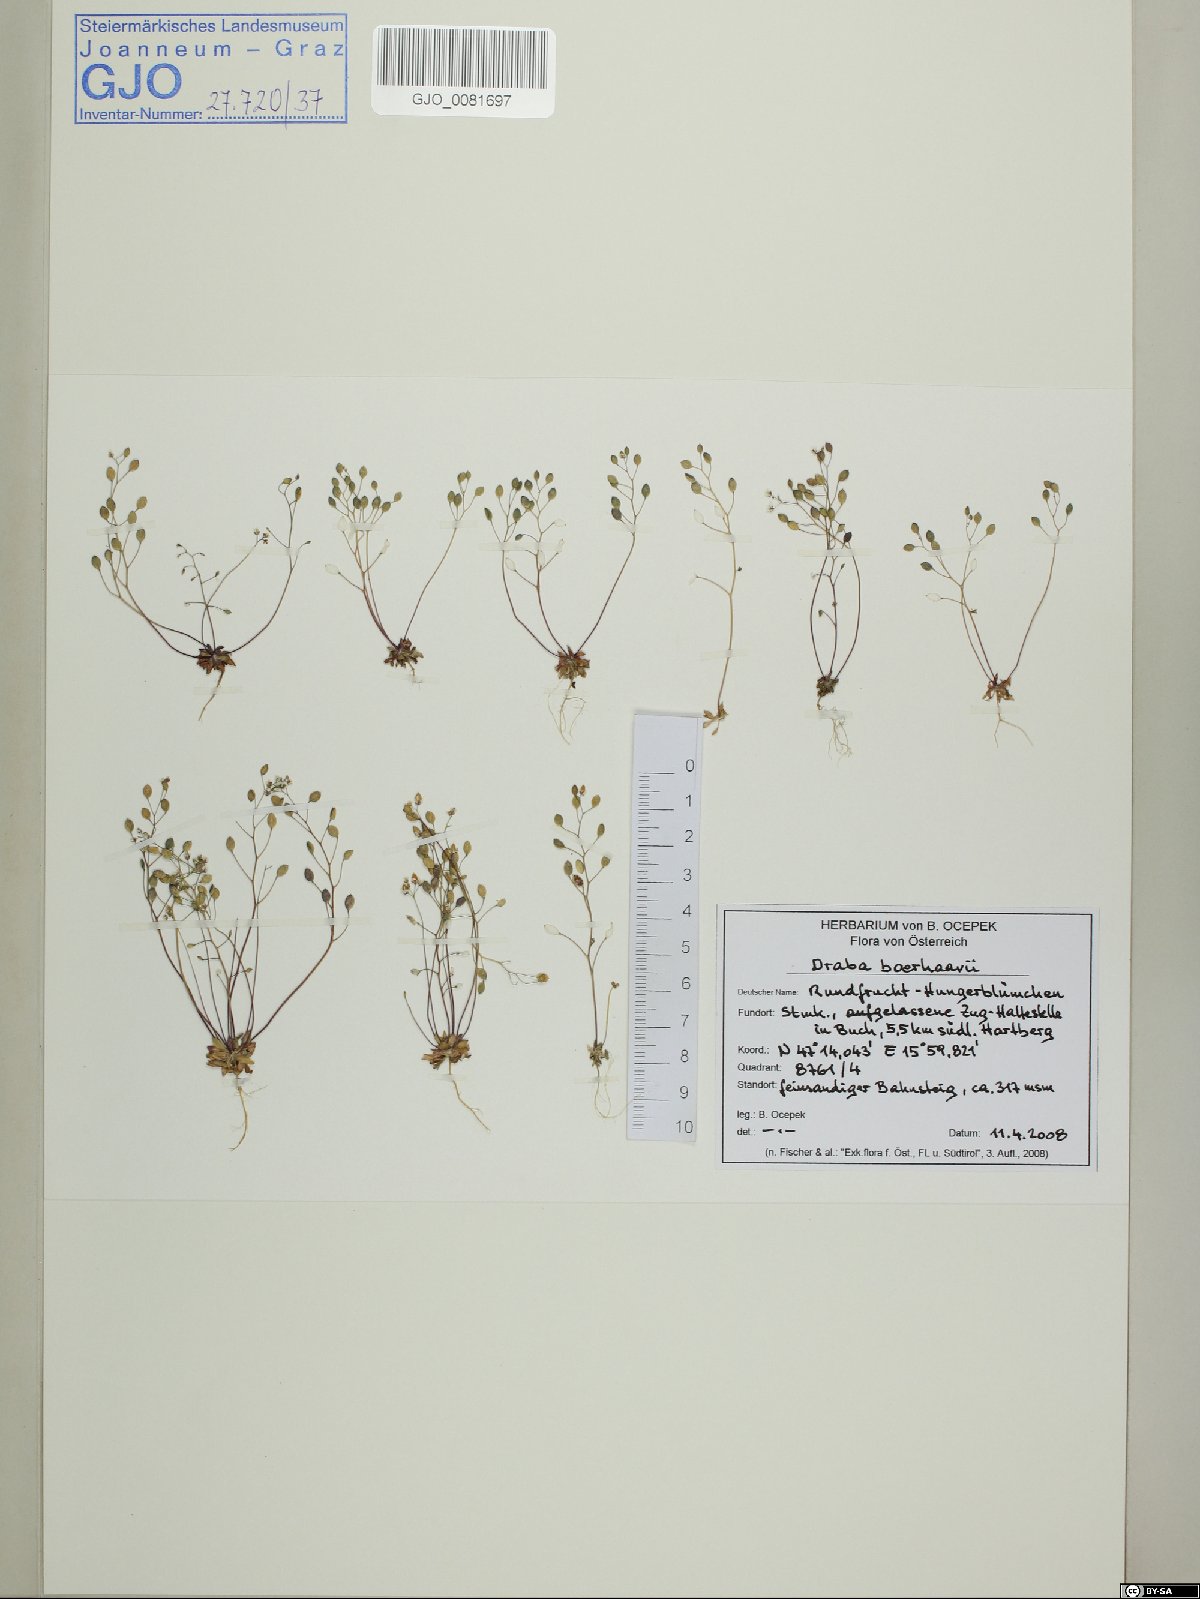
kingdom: Plantae
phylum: Tracheophyta
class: Magnoliopsida
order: Brassicales
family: Brassicaceae
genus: Draba
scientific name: Draba verna
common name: Spring draba
